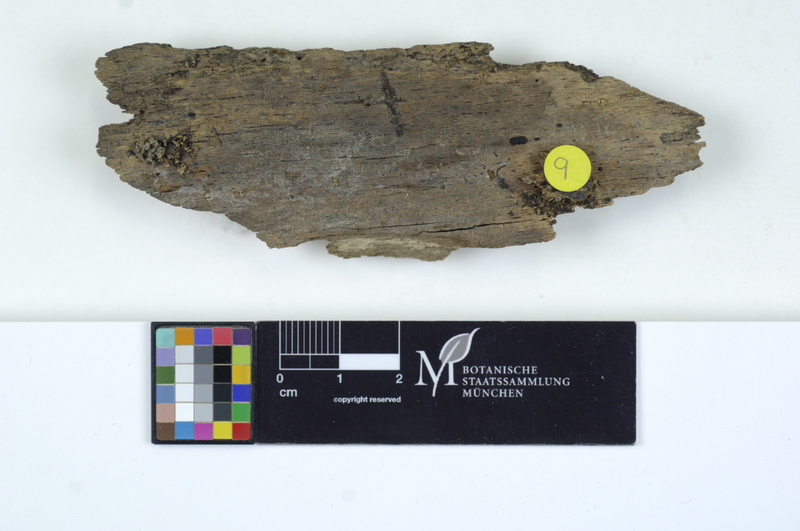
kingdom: Plantae
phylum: Tracheophyta
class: Magnoliopsida
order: Fagales
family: Fagaceae
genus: Fagus
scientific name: Fagus sylvatica
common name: Beech
